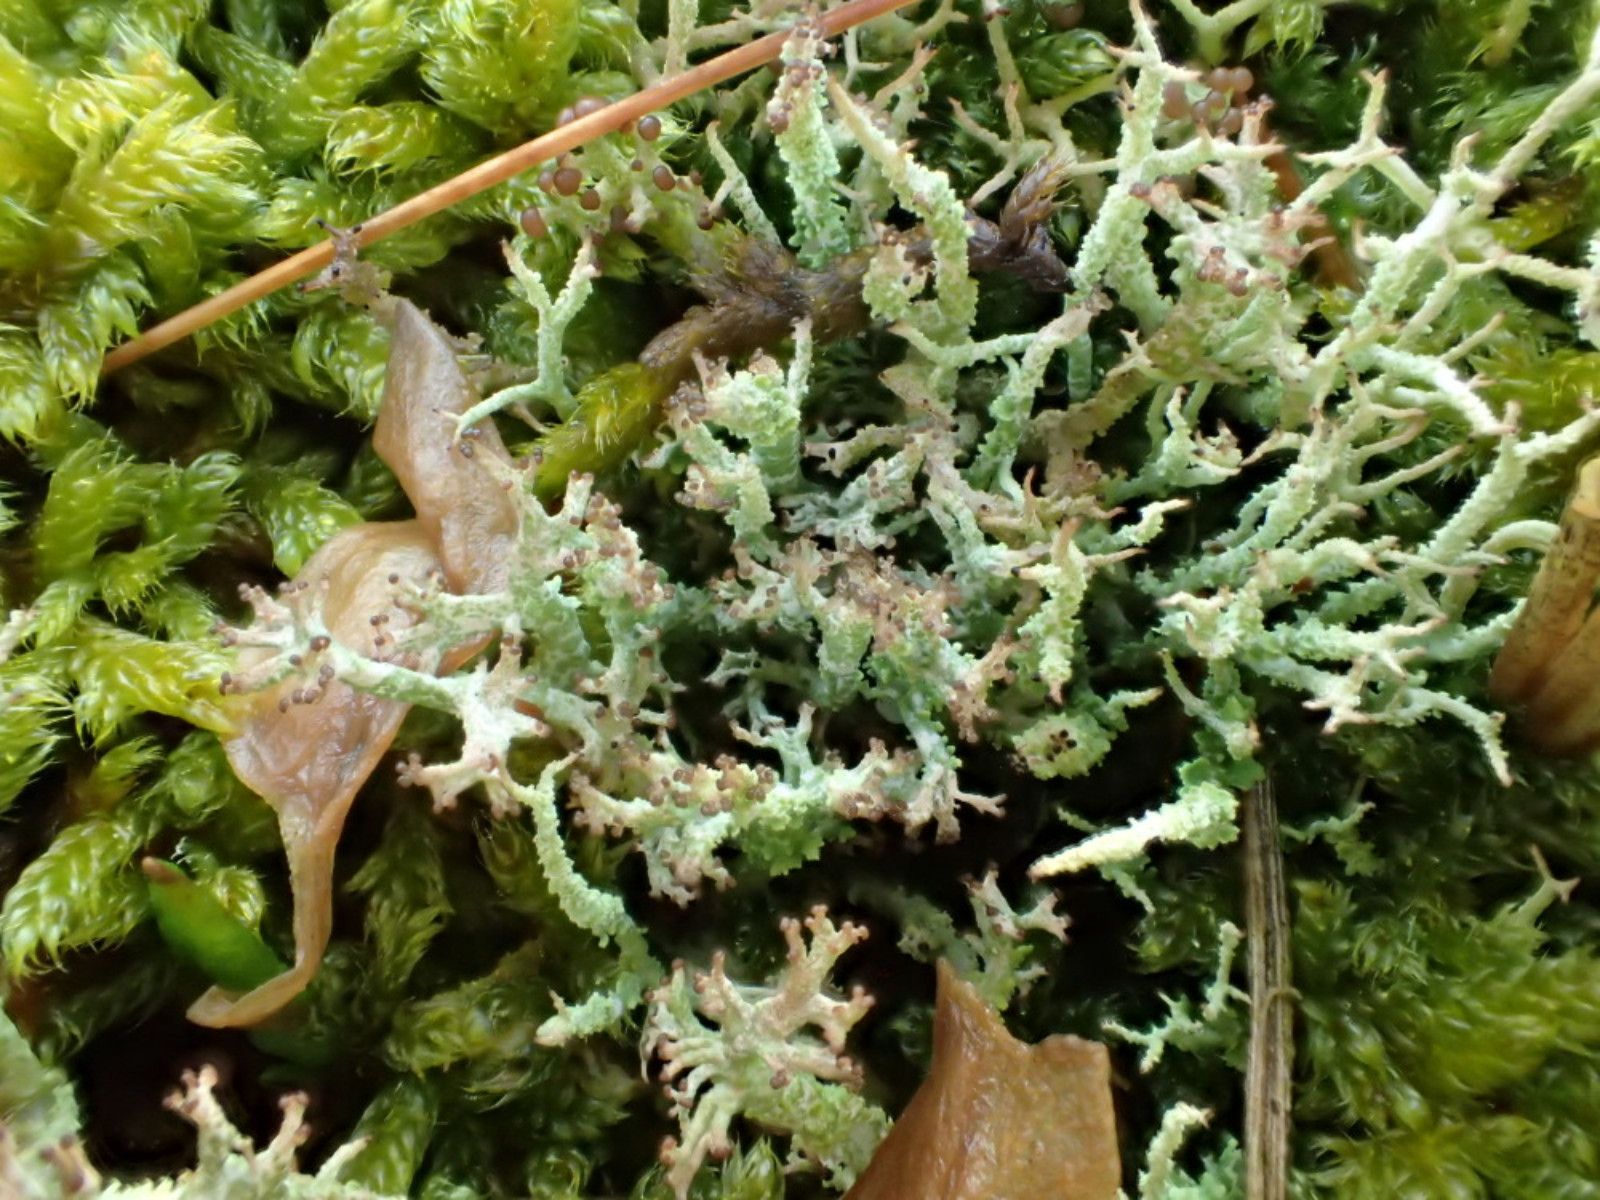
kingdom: Fungi
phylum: Ascomycota
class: Lecanoromycetes
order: Lecanorales
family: Cladoniaceae
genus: Cladonia
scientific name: Cladonia scabriuscula
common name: ru bægerlav
